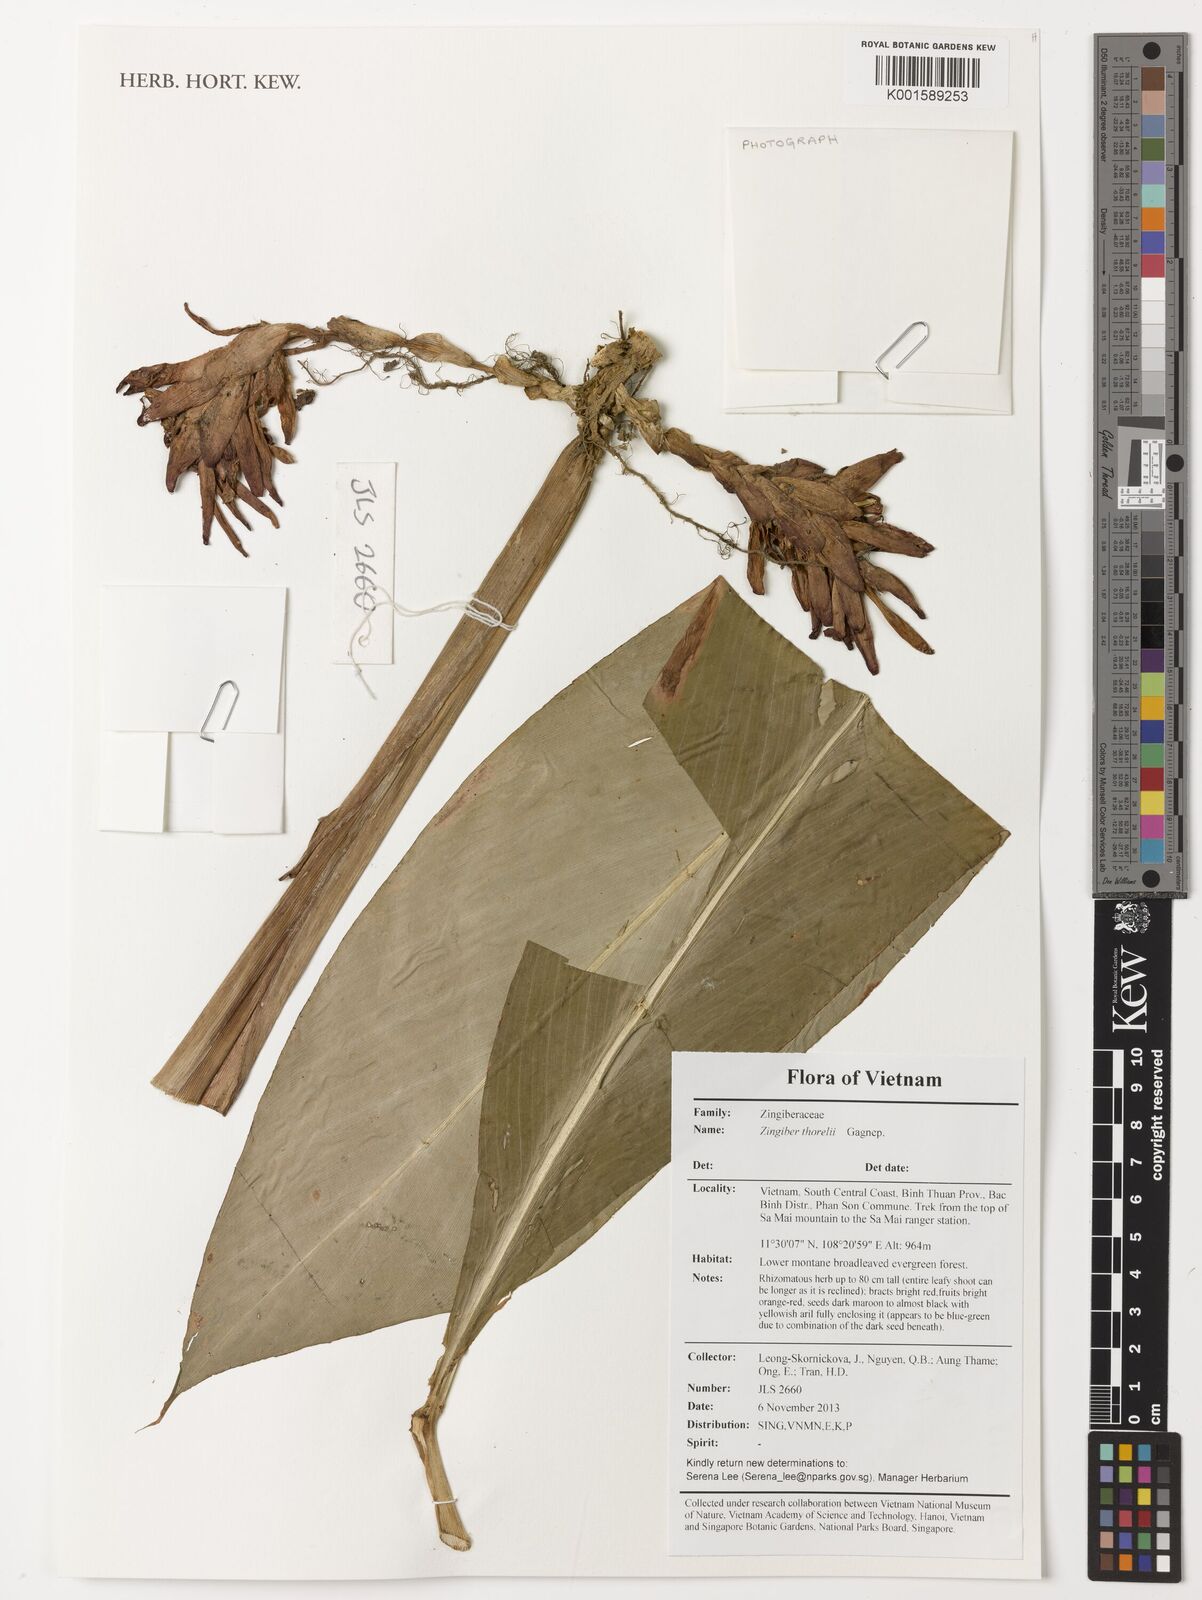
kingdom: Plantae
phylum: Tracheophyta
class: Liliopsida
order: Zingiberales
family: Zingiberaceae
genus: Zingiber
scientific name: Zingiber thorelii
